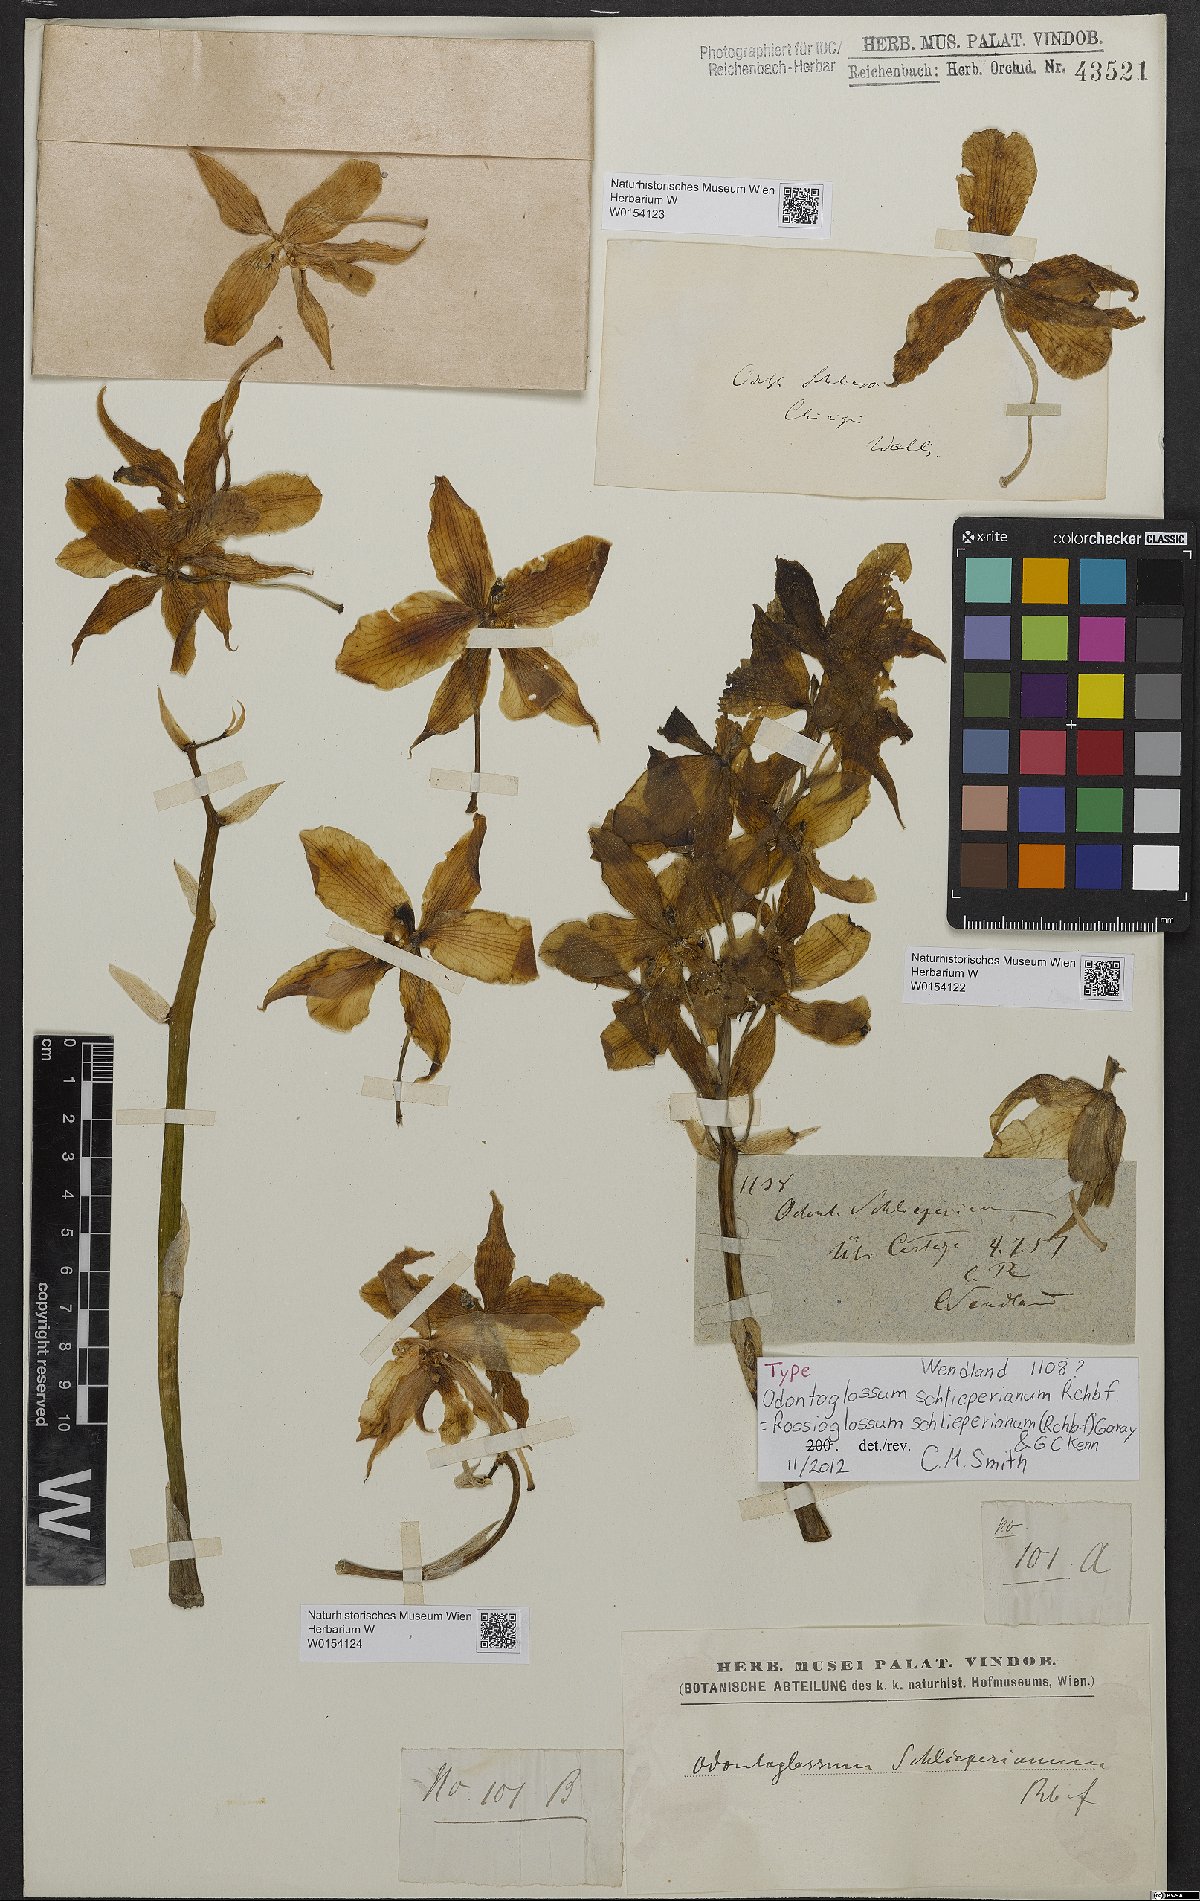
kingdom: Plantae
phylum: Tracheophyta
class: Liliopsida
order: Asparagales
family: Orchidaceae
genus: Rossioglossum
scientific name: Rossioglossum schlieperianum
